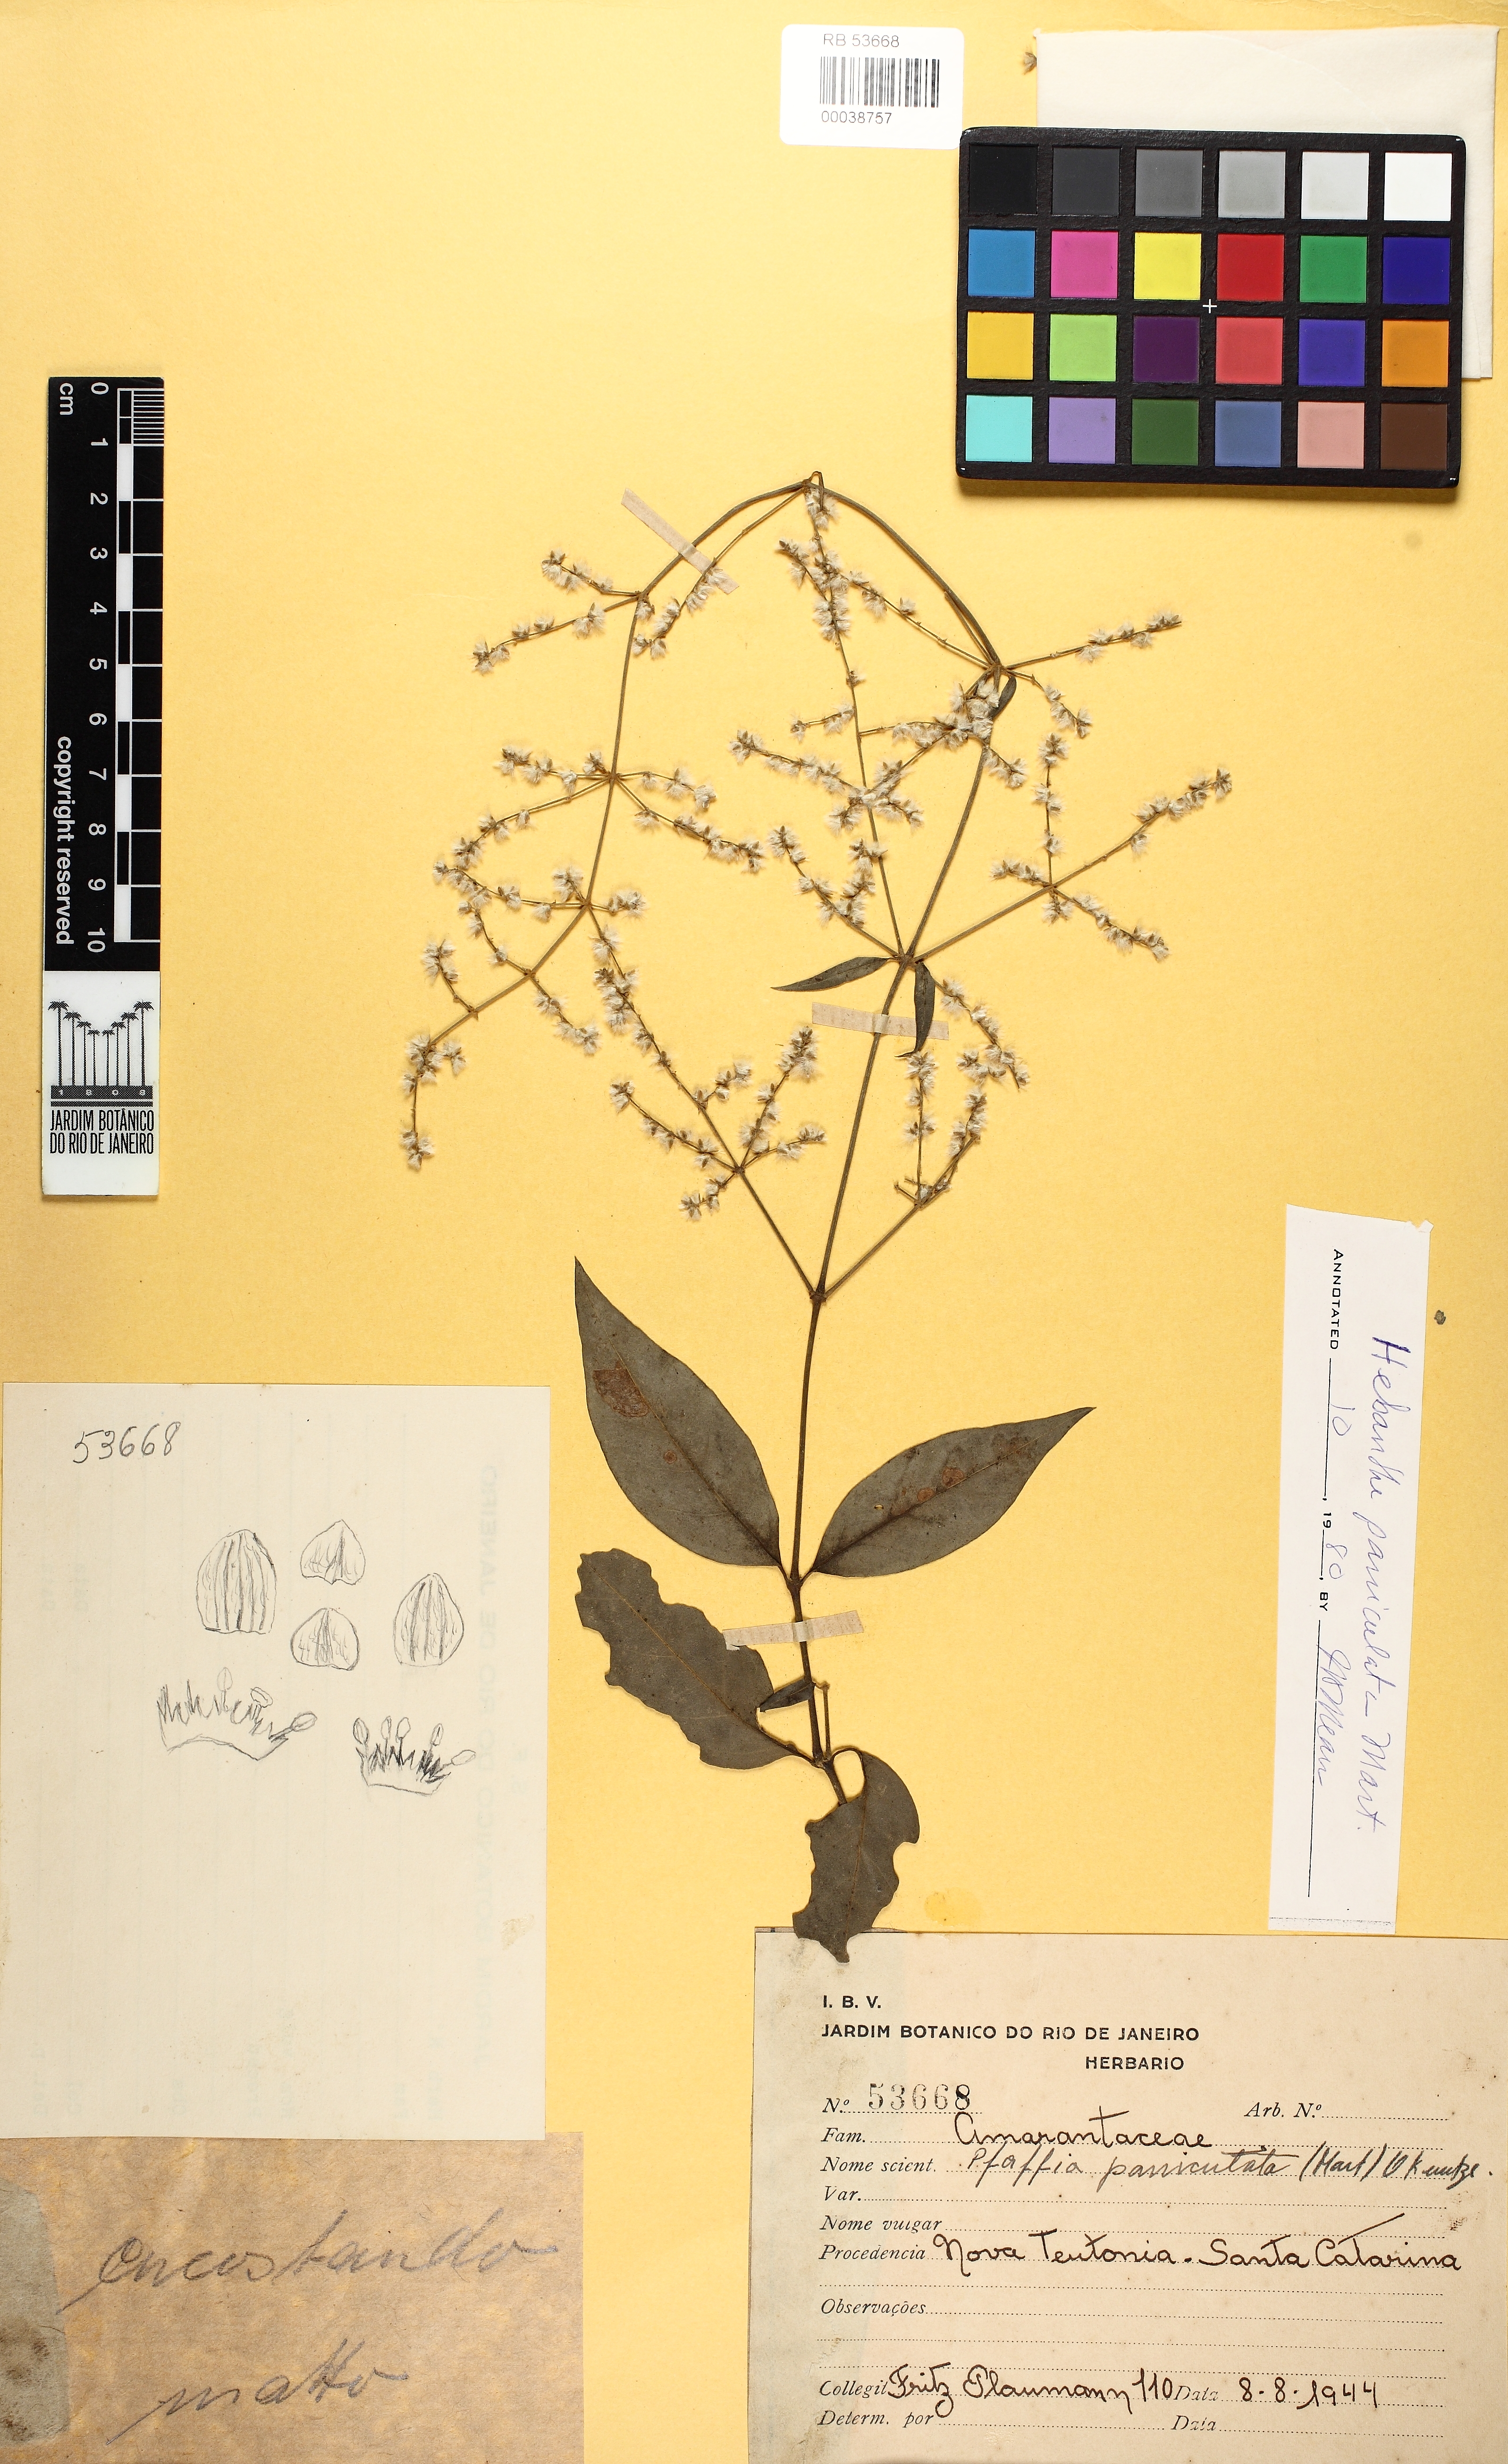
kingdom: Plantae
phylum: Tracheophyta
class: Magnoliopsida
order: Caryophyllales
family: Amaranthaceae
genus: Hebanthe
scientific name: Hebanthe erianthos
